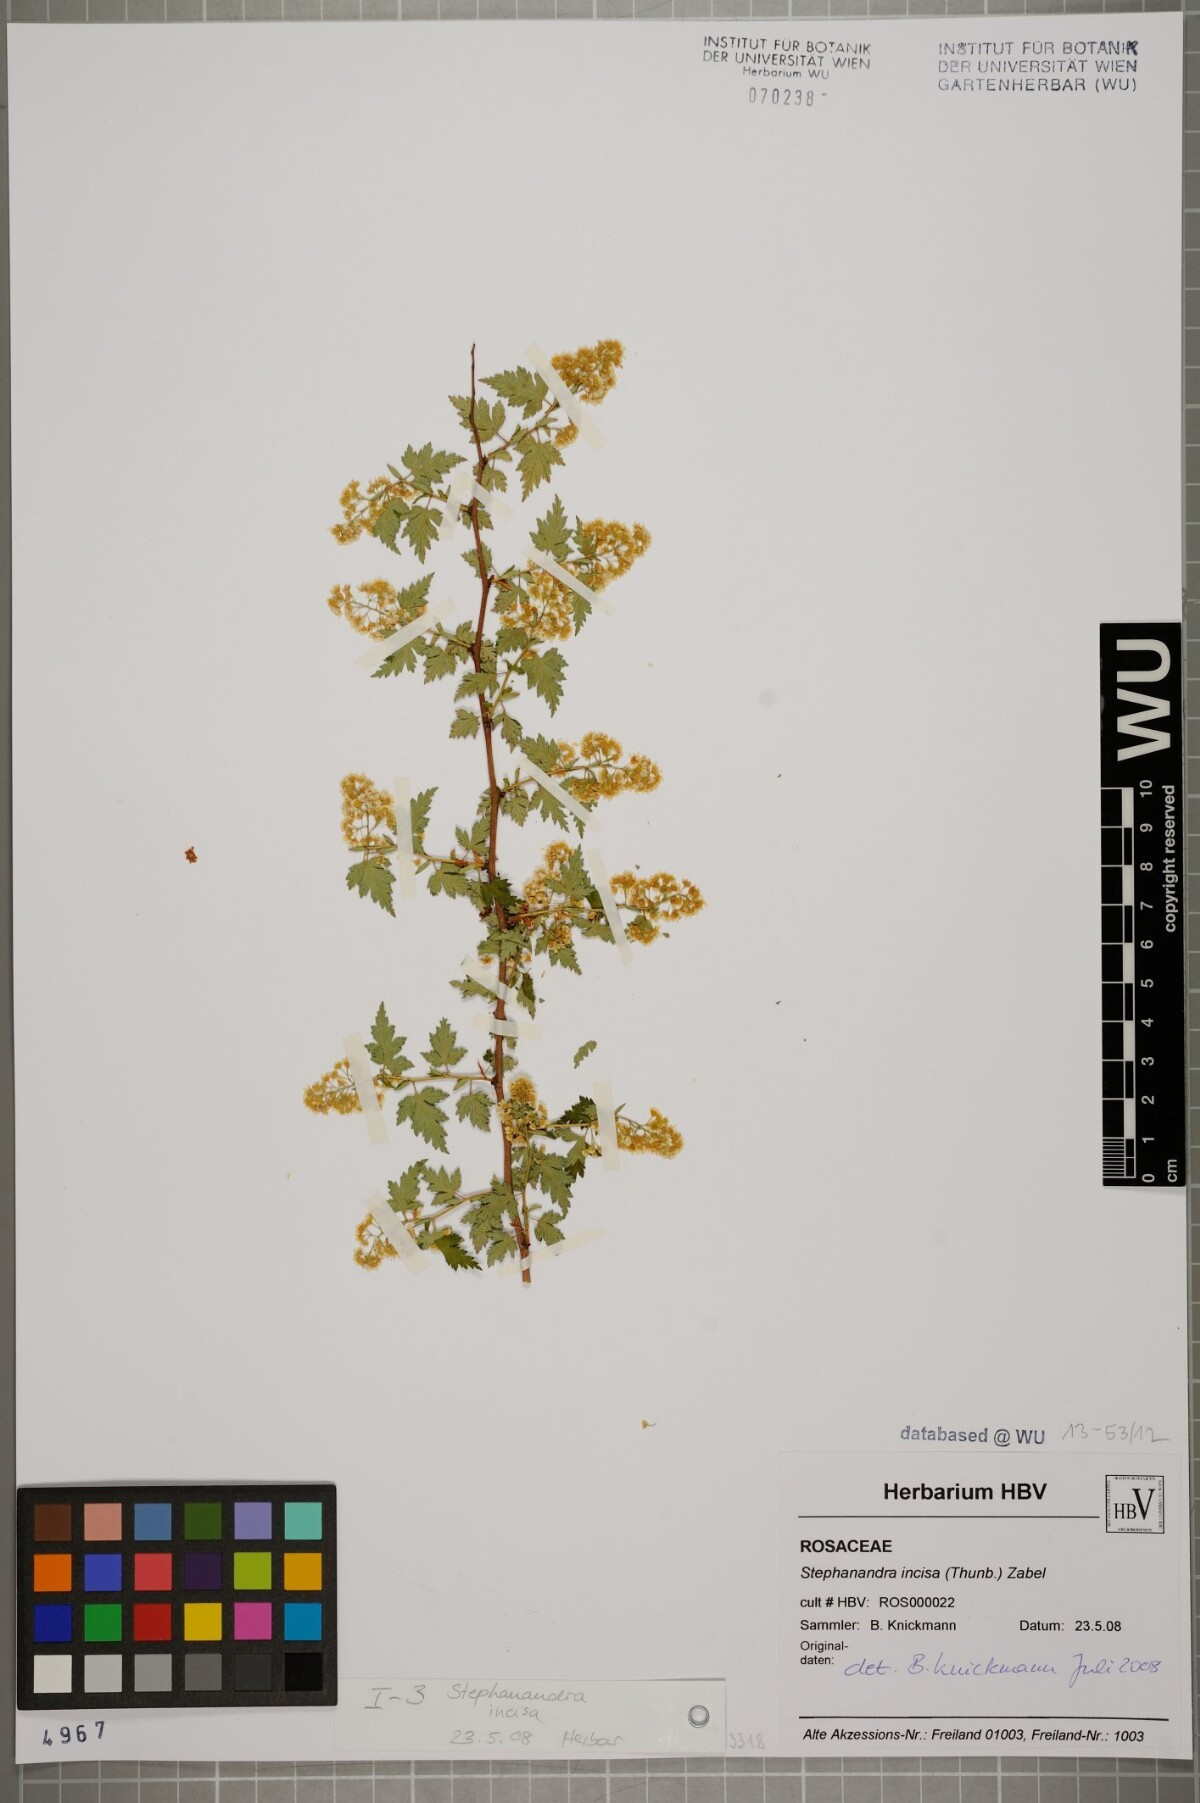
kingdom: Plantae
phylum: Tracheophyta
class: Magnoliopsida
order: Rosales
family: Rosaceae
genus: Neillia
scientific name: Neillia incisa
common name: Laceshrub
